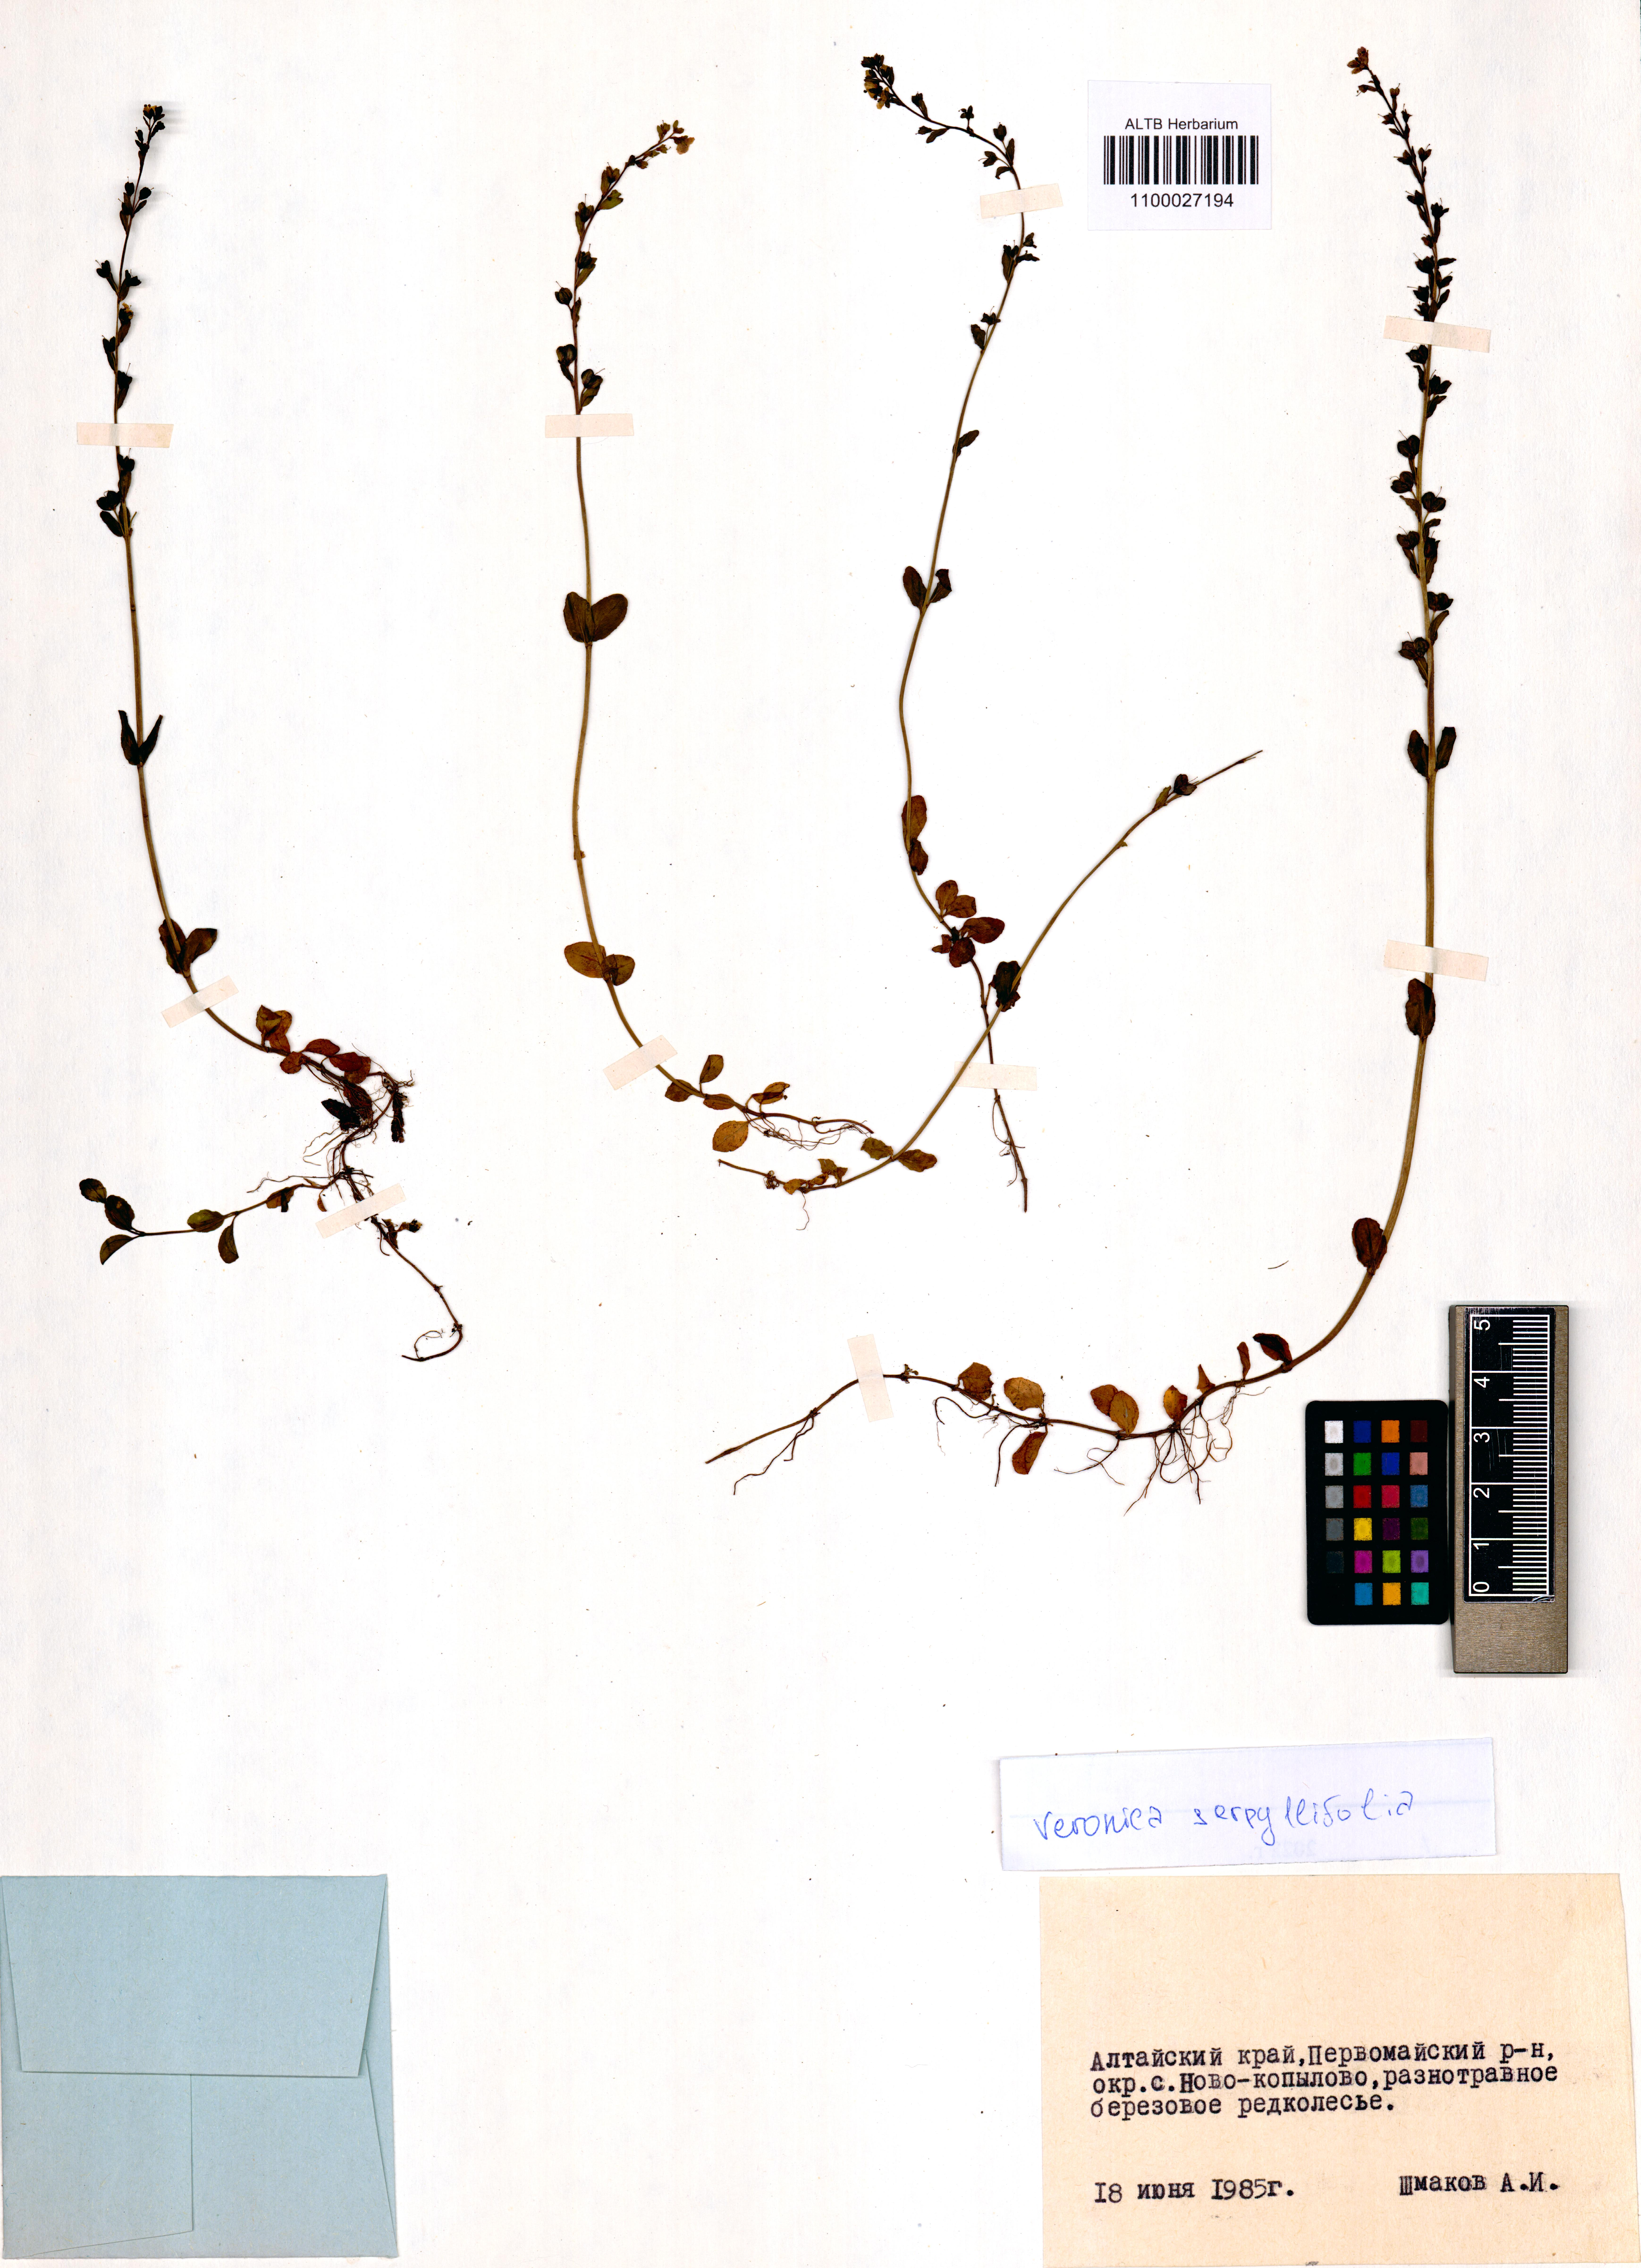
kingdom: Plantae
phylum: Tracheophyta
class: Magnoliopsida
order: Lamiales
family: Plantaginaceae
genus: Veronica
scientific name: Veronica serpyllifolia
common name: Thyme-leaved speedwell
